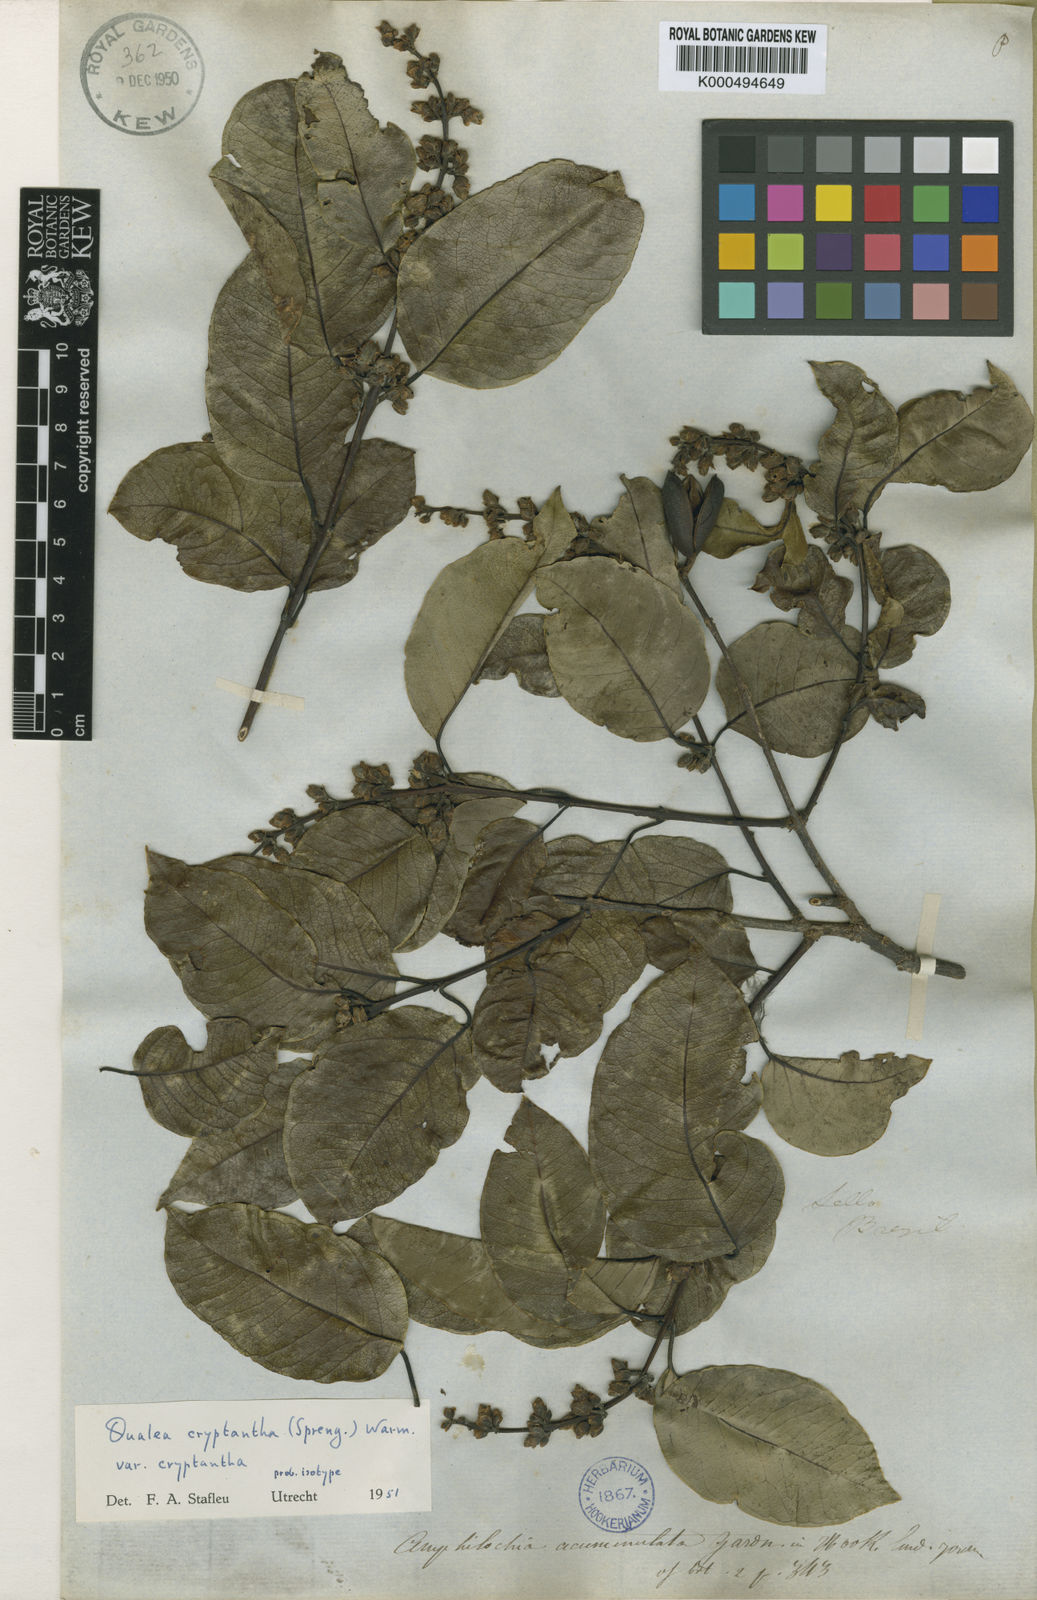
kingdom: Plantae
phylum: Tracheophyta
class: Magnoliopsida
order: Myrtales
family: Vochysiaceae
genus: Qualea
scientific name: Qualea cryptantha
